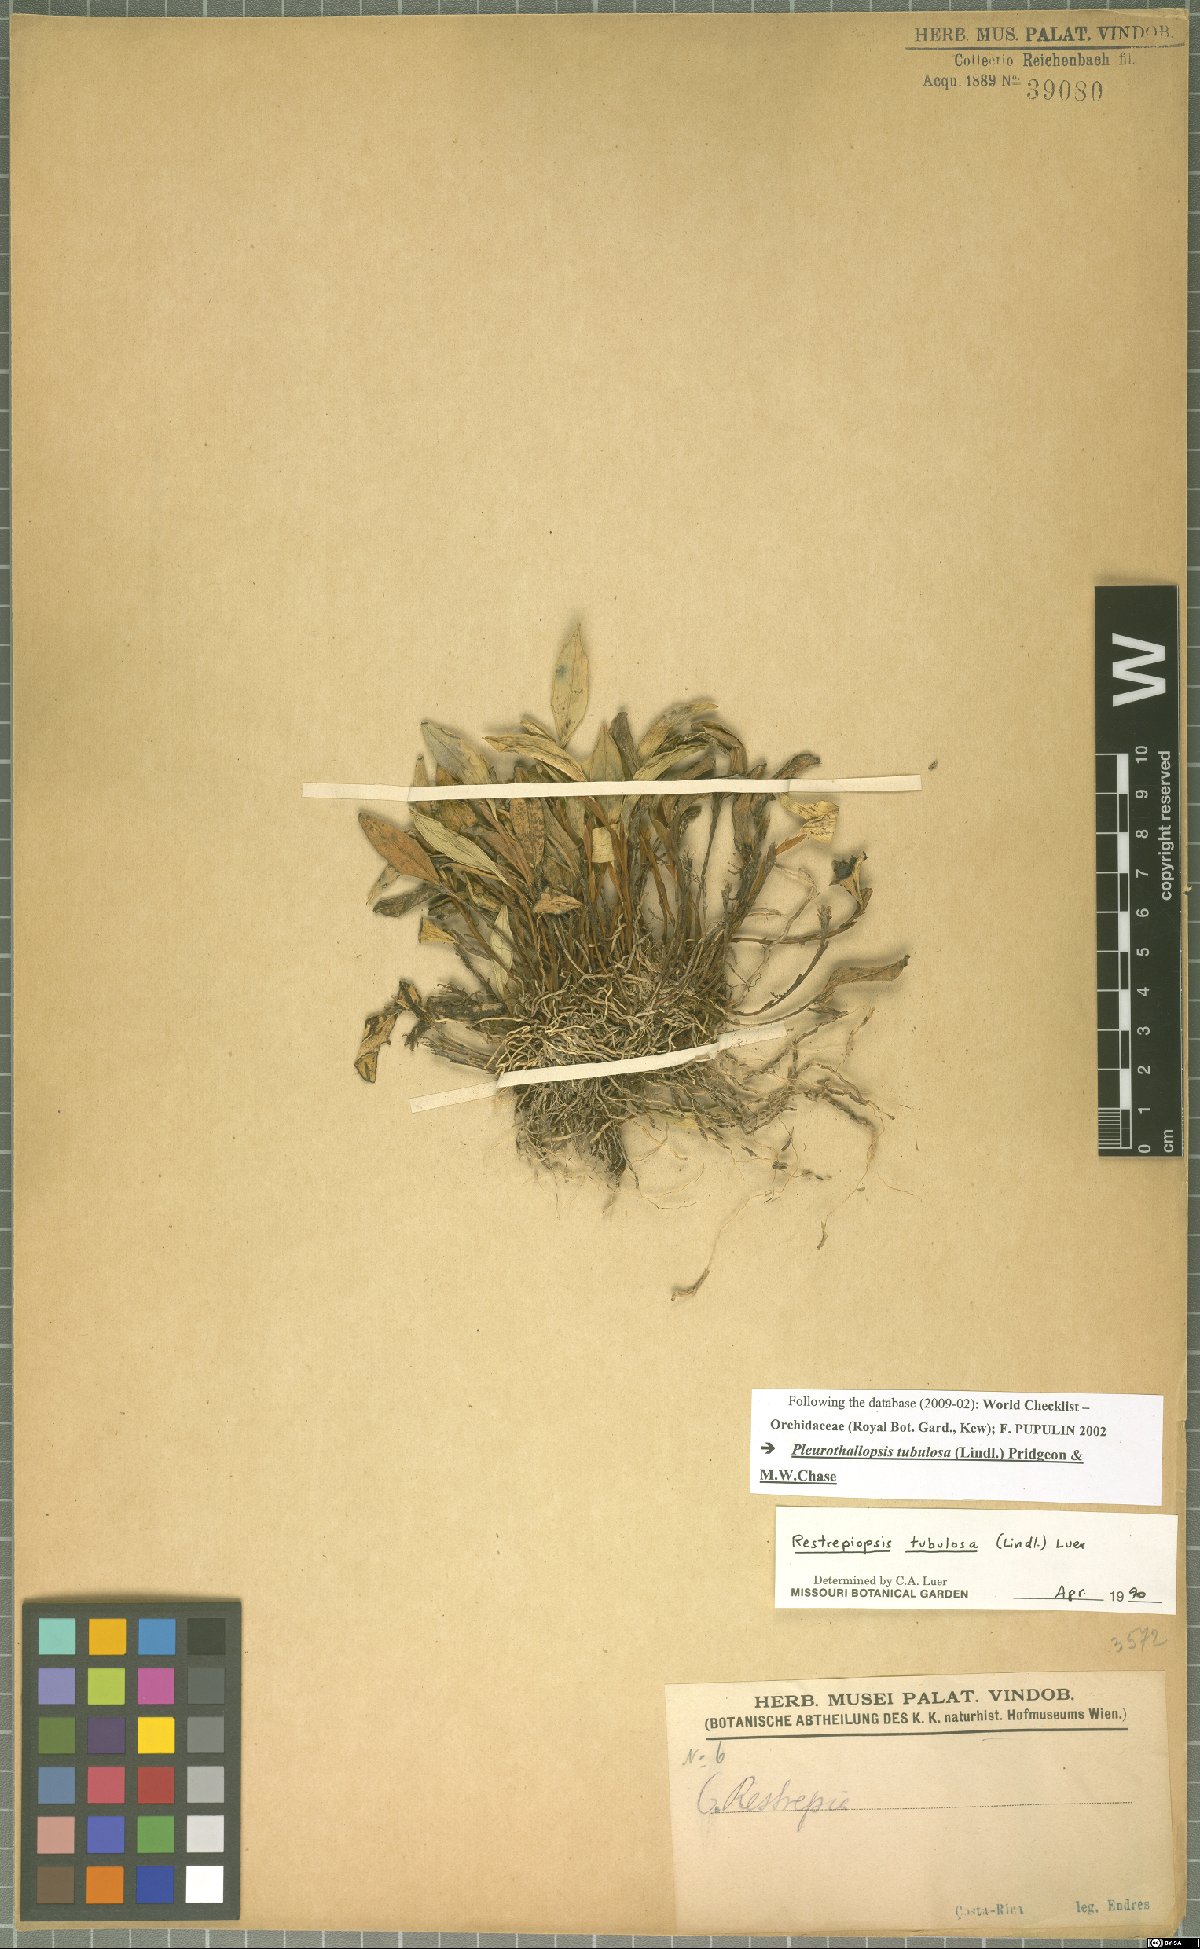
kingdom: Plantae
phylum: Tracheophyta
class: Liliopsida
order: Asparagales
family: Orchidaceae
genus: Pleurothallopsis
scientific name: Pleurothallopsis tubulosa
